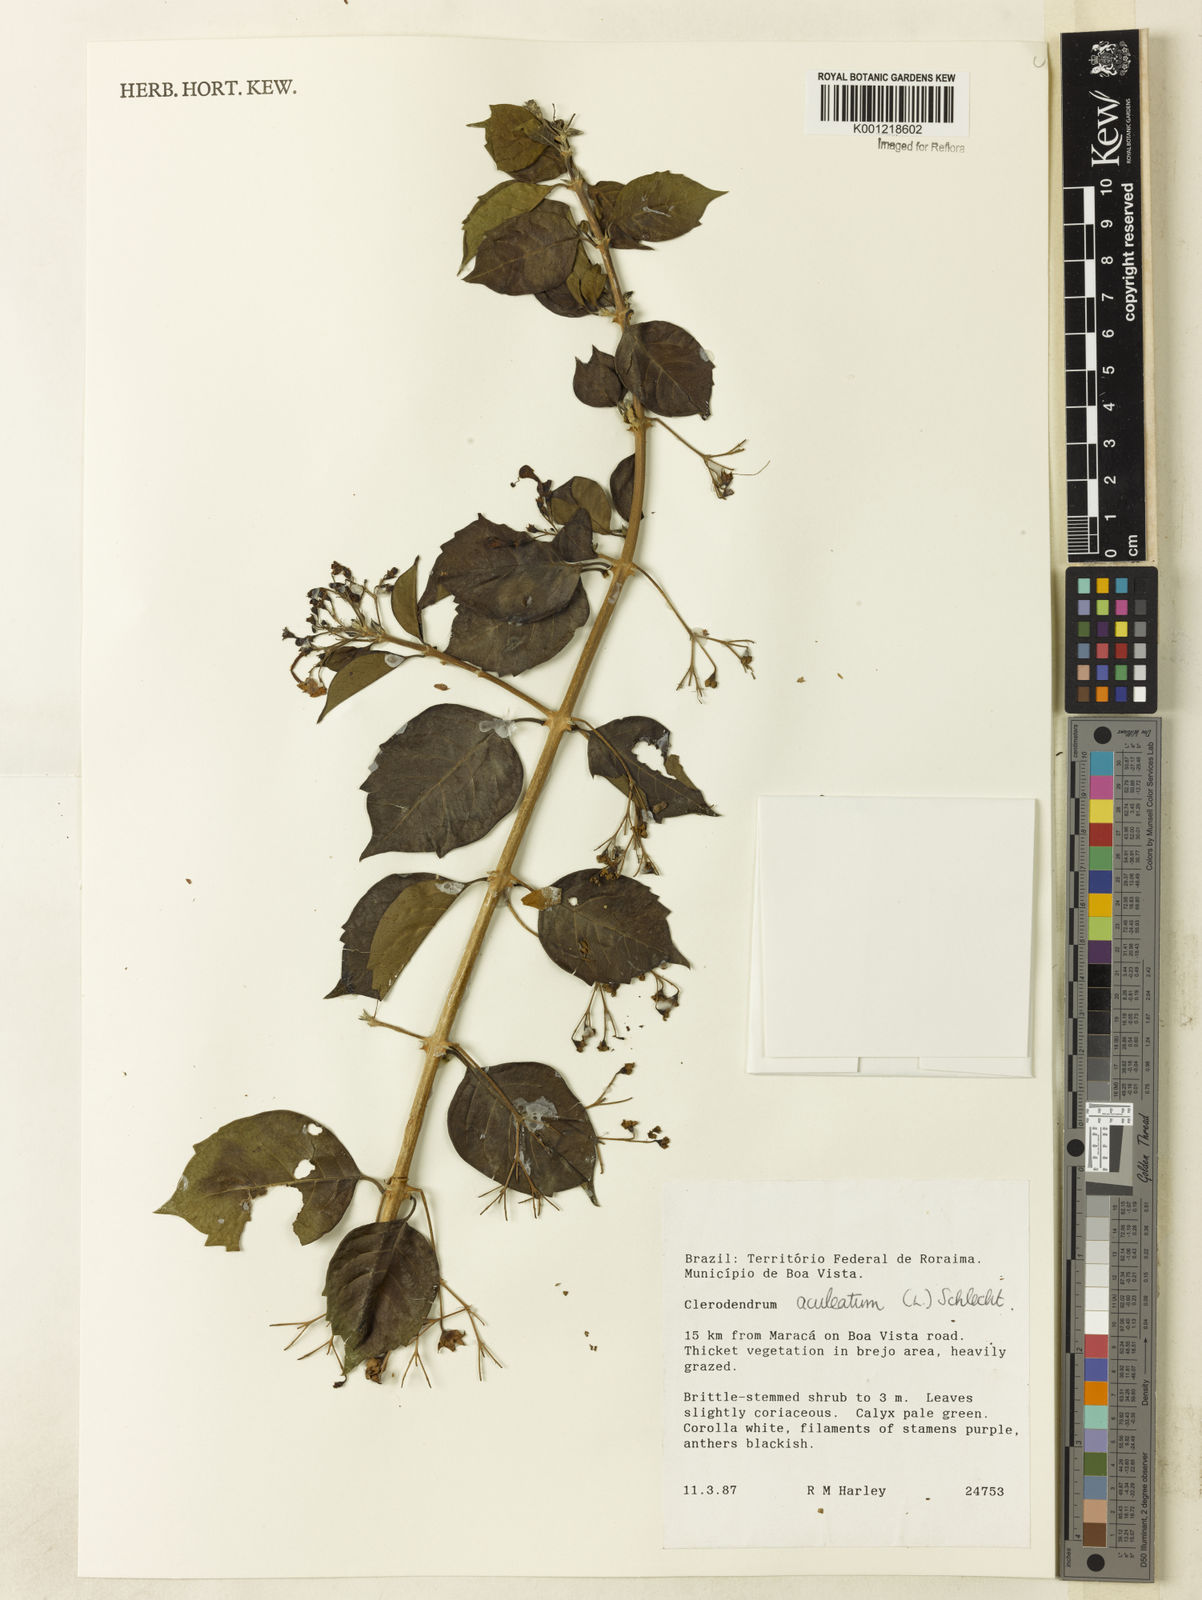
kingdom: Plantae
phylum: Tracheophyta
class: Magnoliopsida
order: Lamiales
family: Lamiaceae
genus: Volkameria
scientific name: Volkameria aculeata
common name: Prickly myrtle
